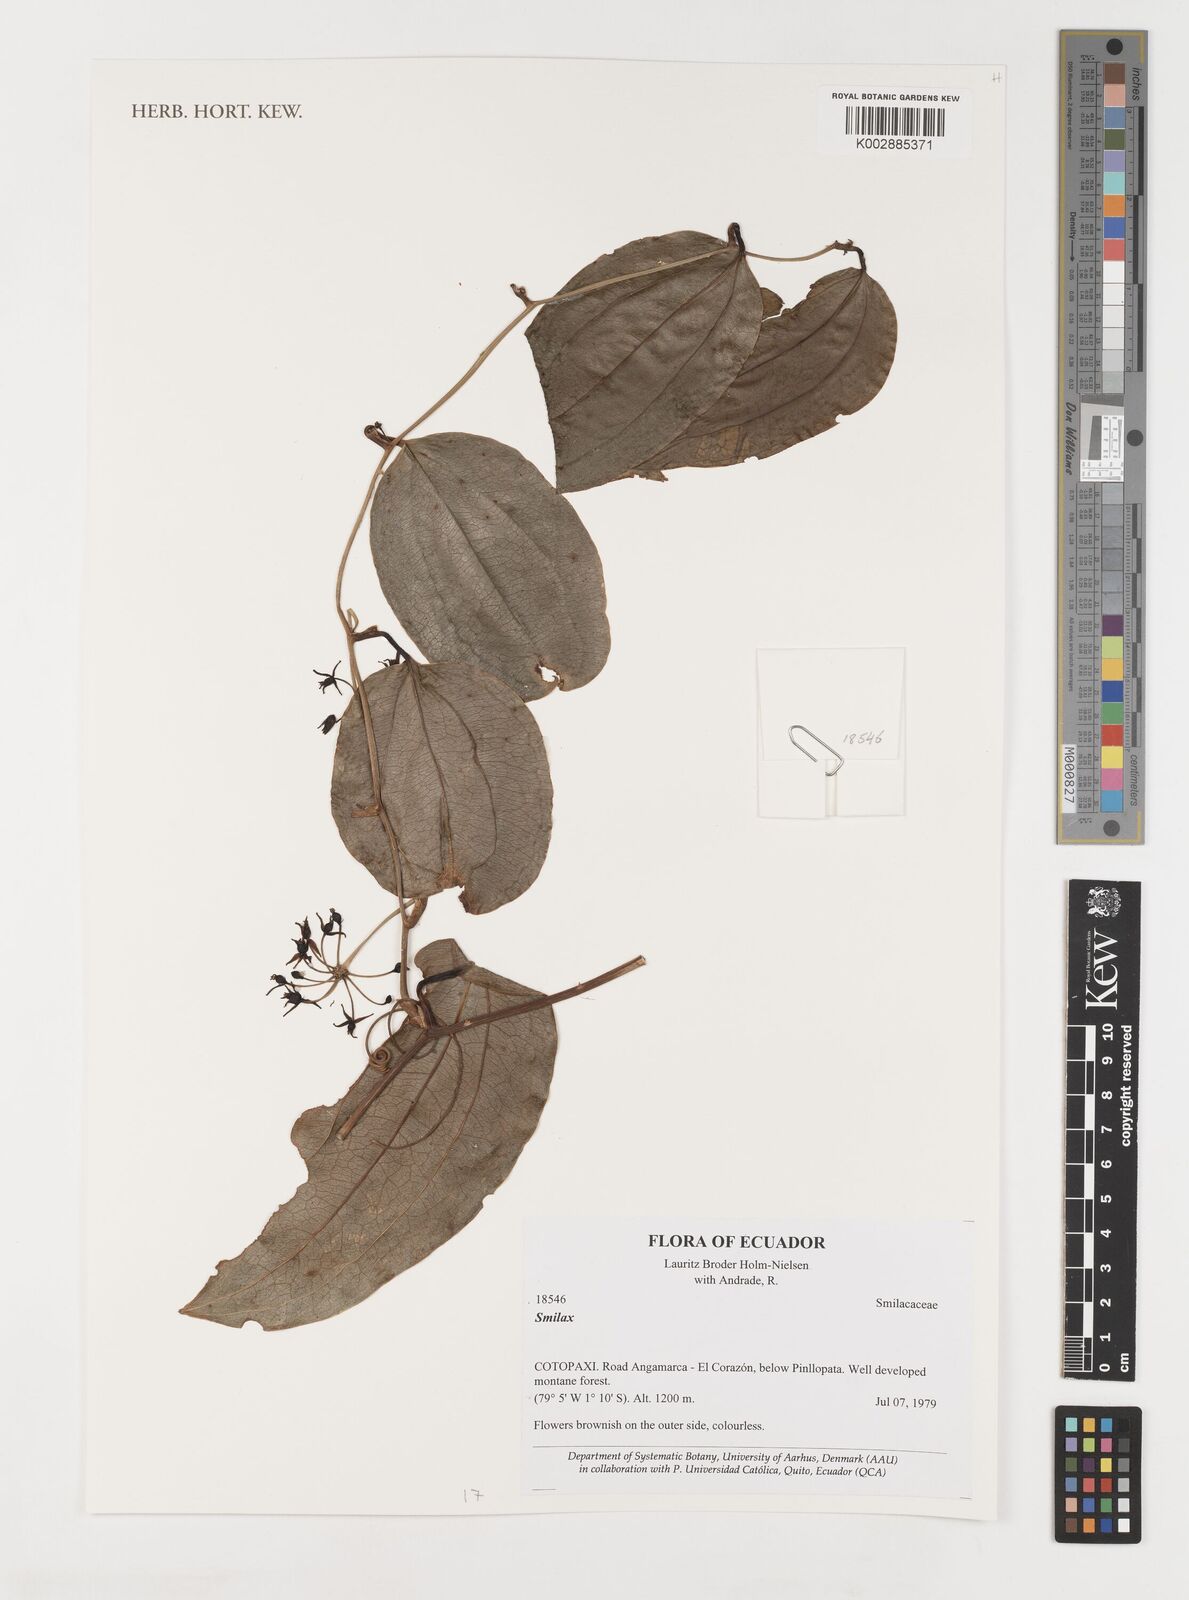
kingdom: Plantae
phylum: Tracheophyta
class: Liliopsida
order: Liliales
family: Smilacaceae
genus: Smilax
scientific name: Smilax
